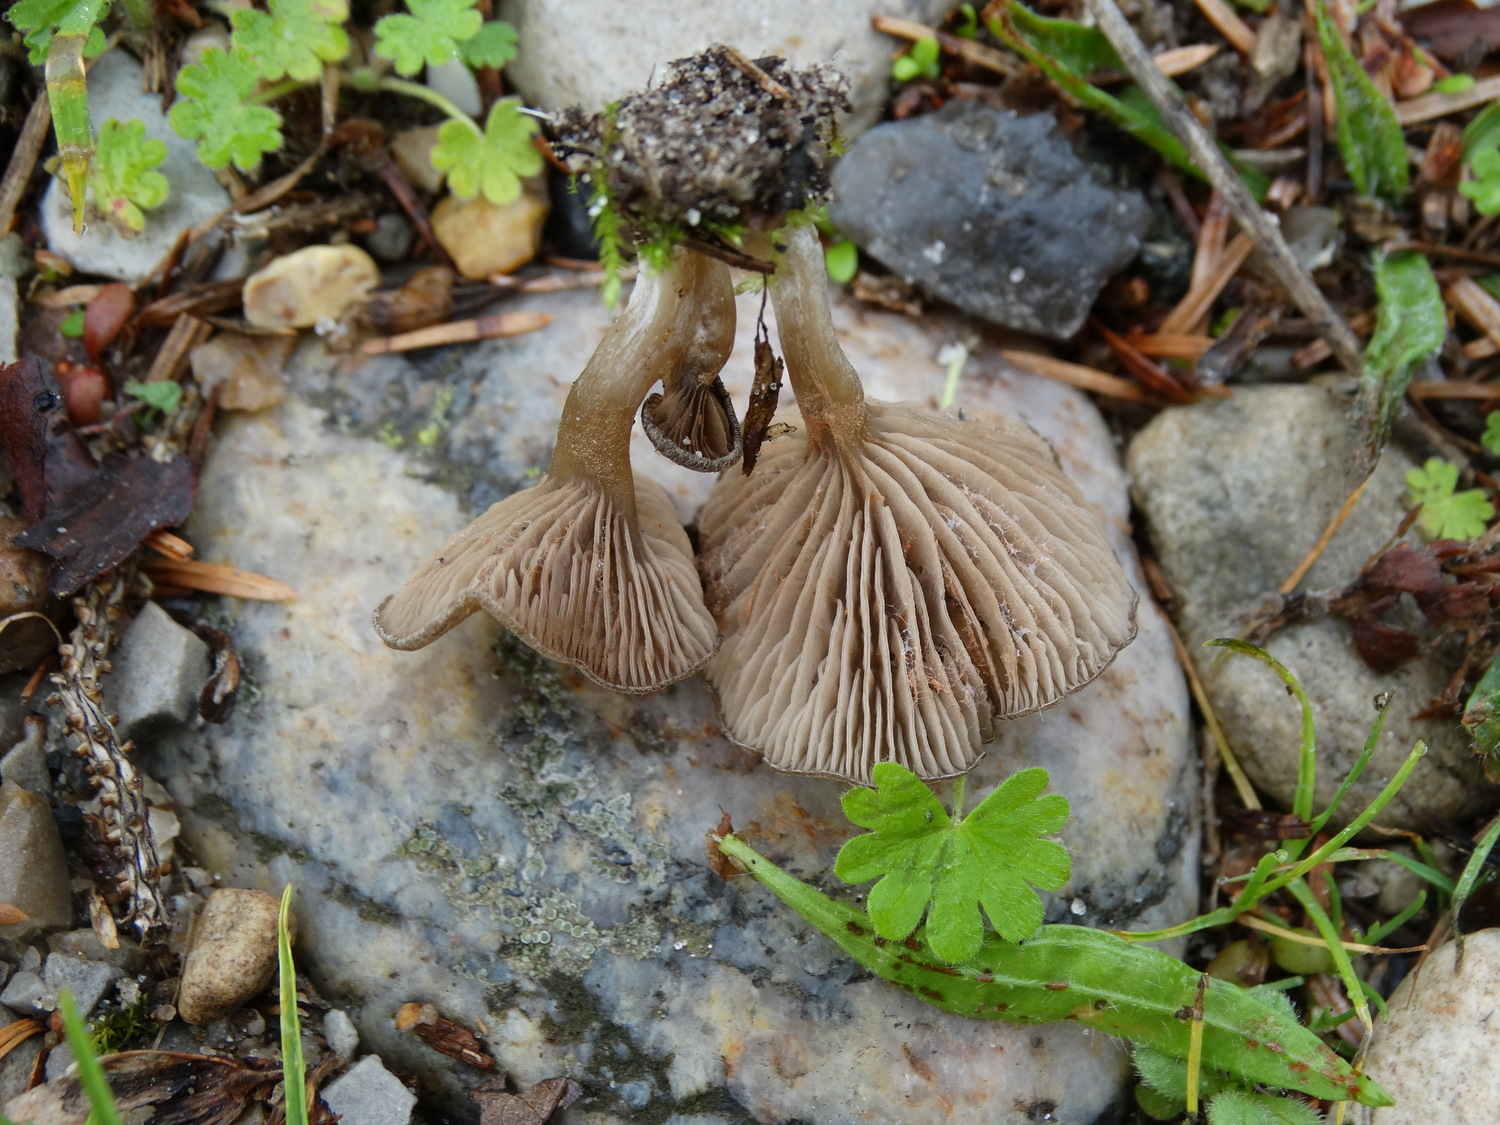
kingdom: Fungi
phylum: Basidiomycota
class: Agaricomycetes
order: Agaricales
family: Entolomataceae
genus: Entoloma
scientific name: Entoloma undatum
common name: bæltet rødblad
